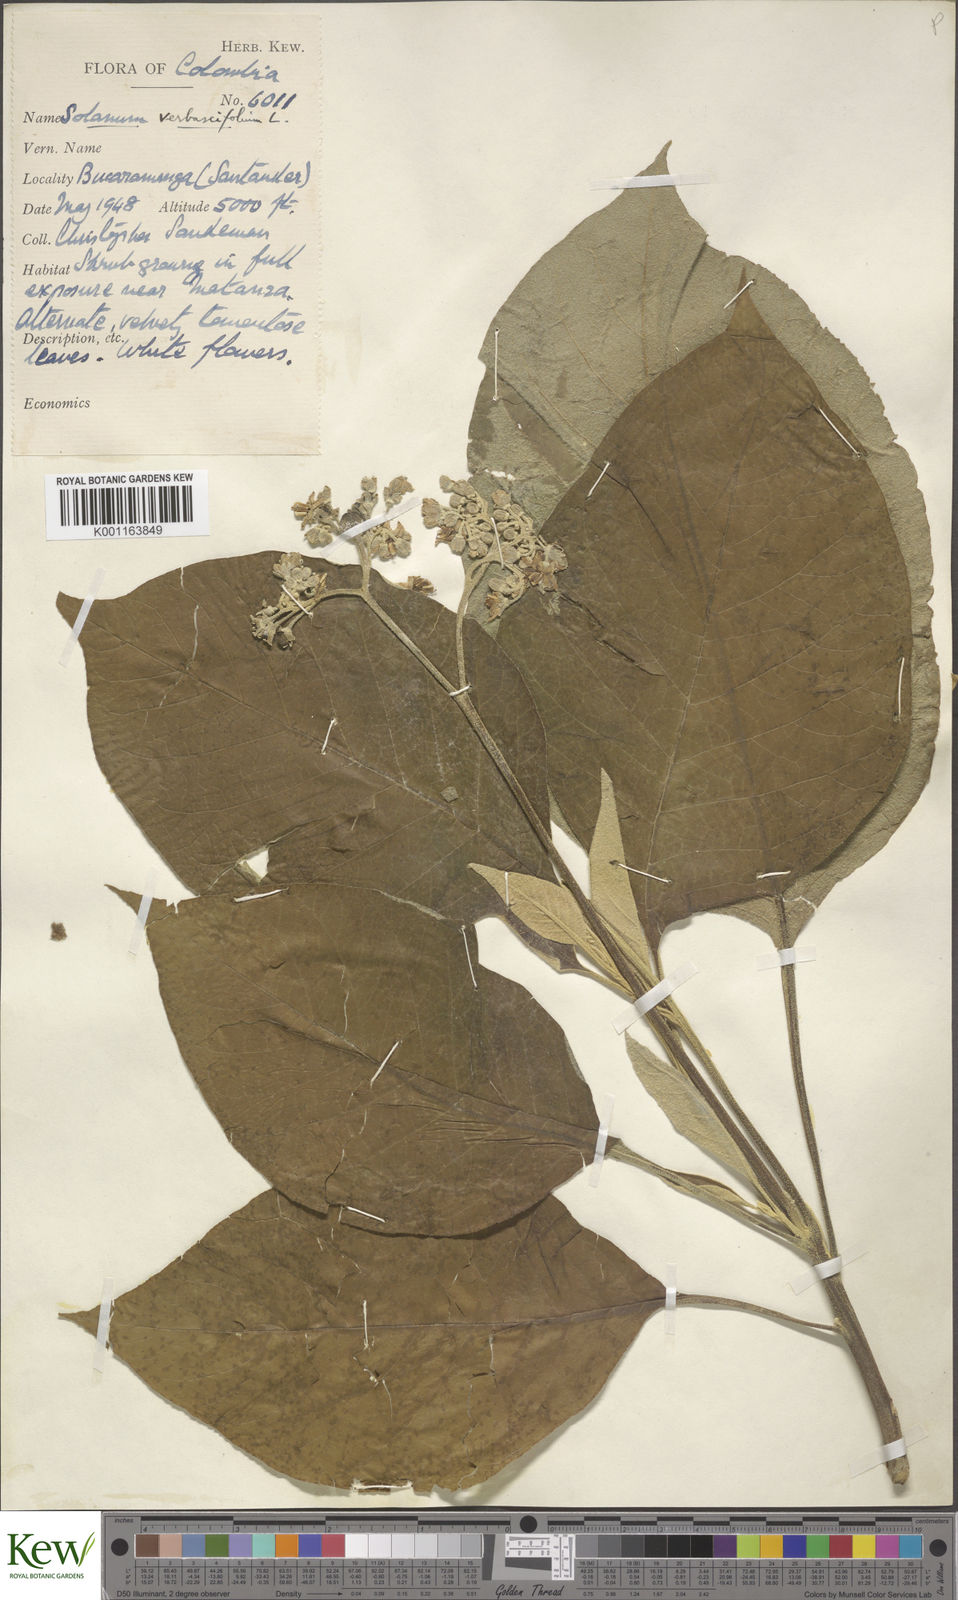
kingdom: Plantae
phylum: Tracheophyta
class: Magnoliopsida
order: Solanales
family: Solanaceae
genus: Solanum
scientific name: Solanum erianthum
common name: Tobacco-tree
